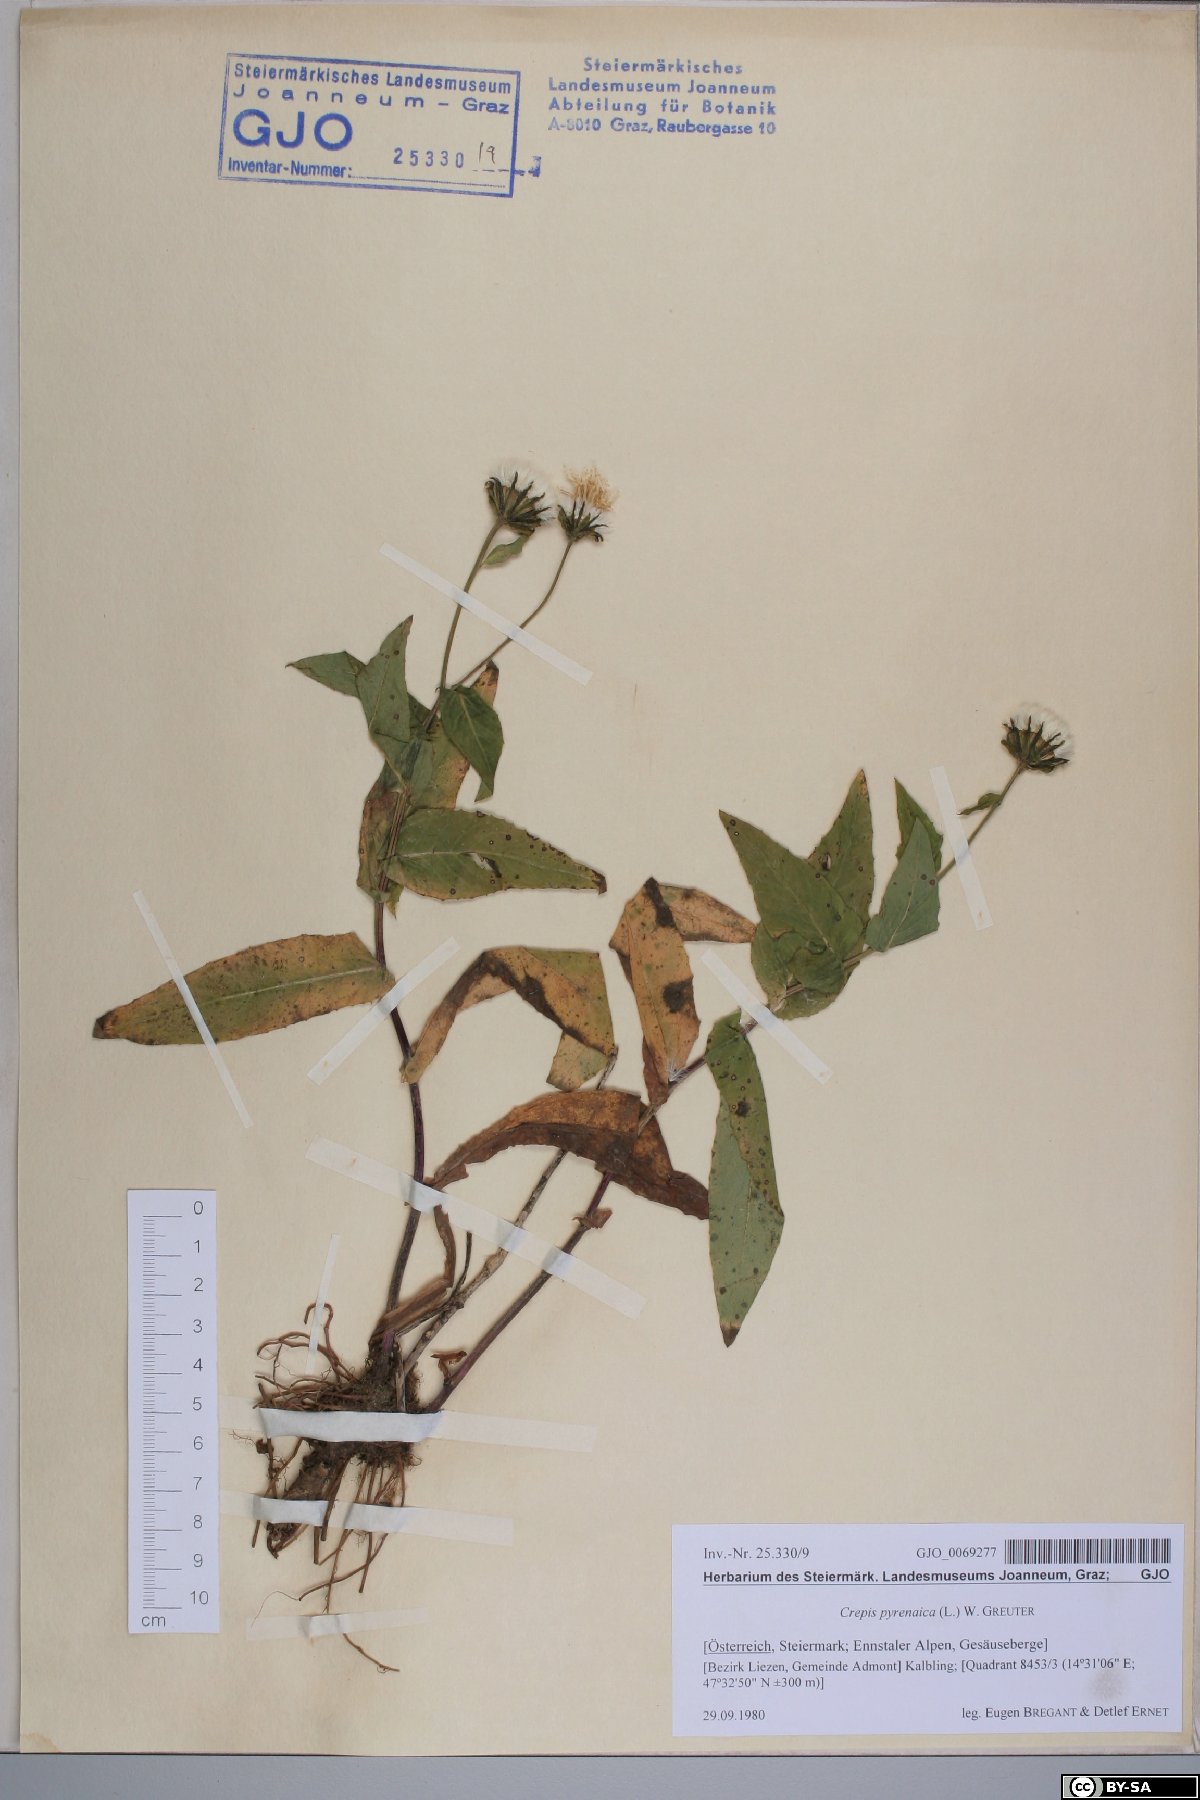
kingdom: Plantae
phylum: Tracheophyta
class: Magnoliopsida
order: Asterales
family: Asteraceae
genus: Crepis
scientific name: Crepis pyrenaica
